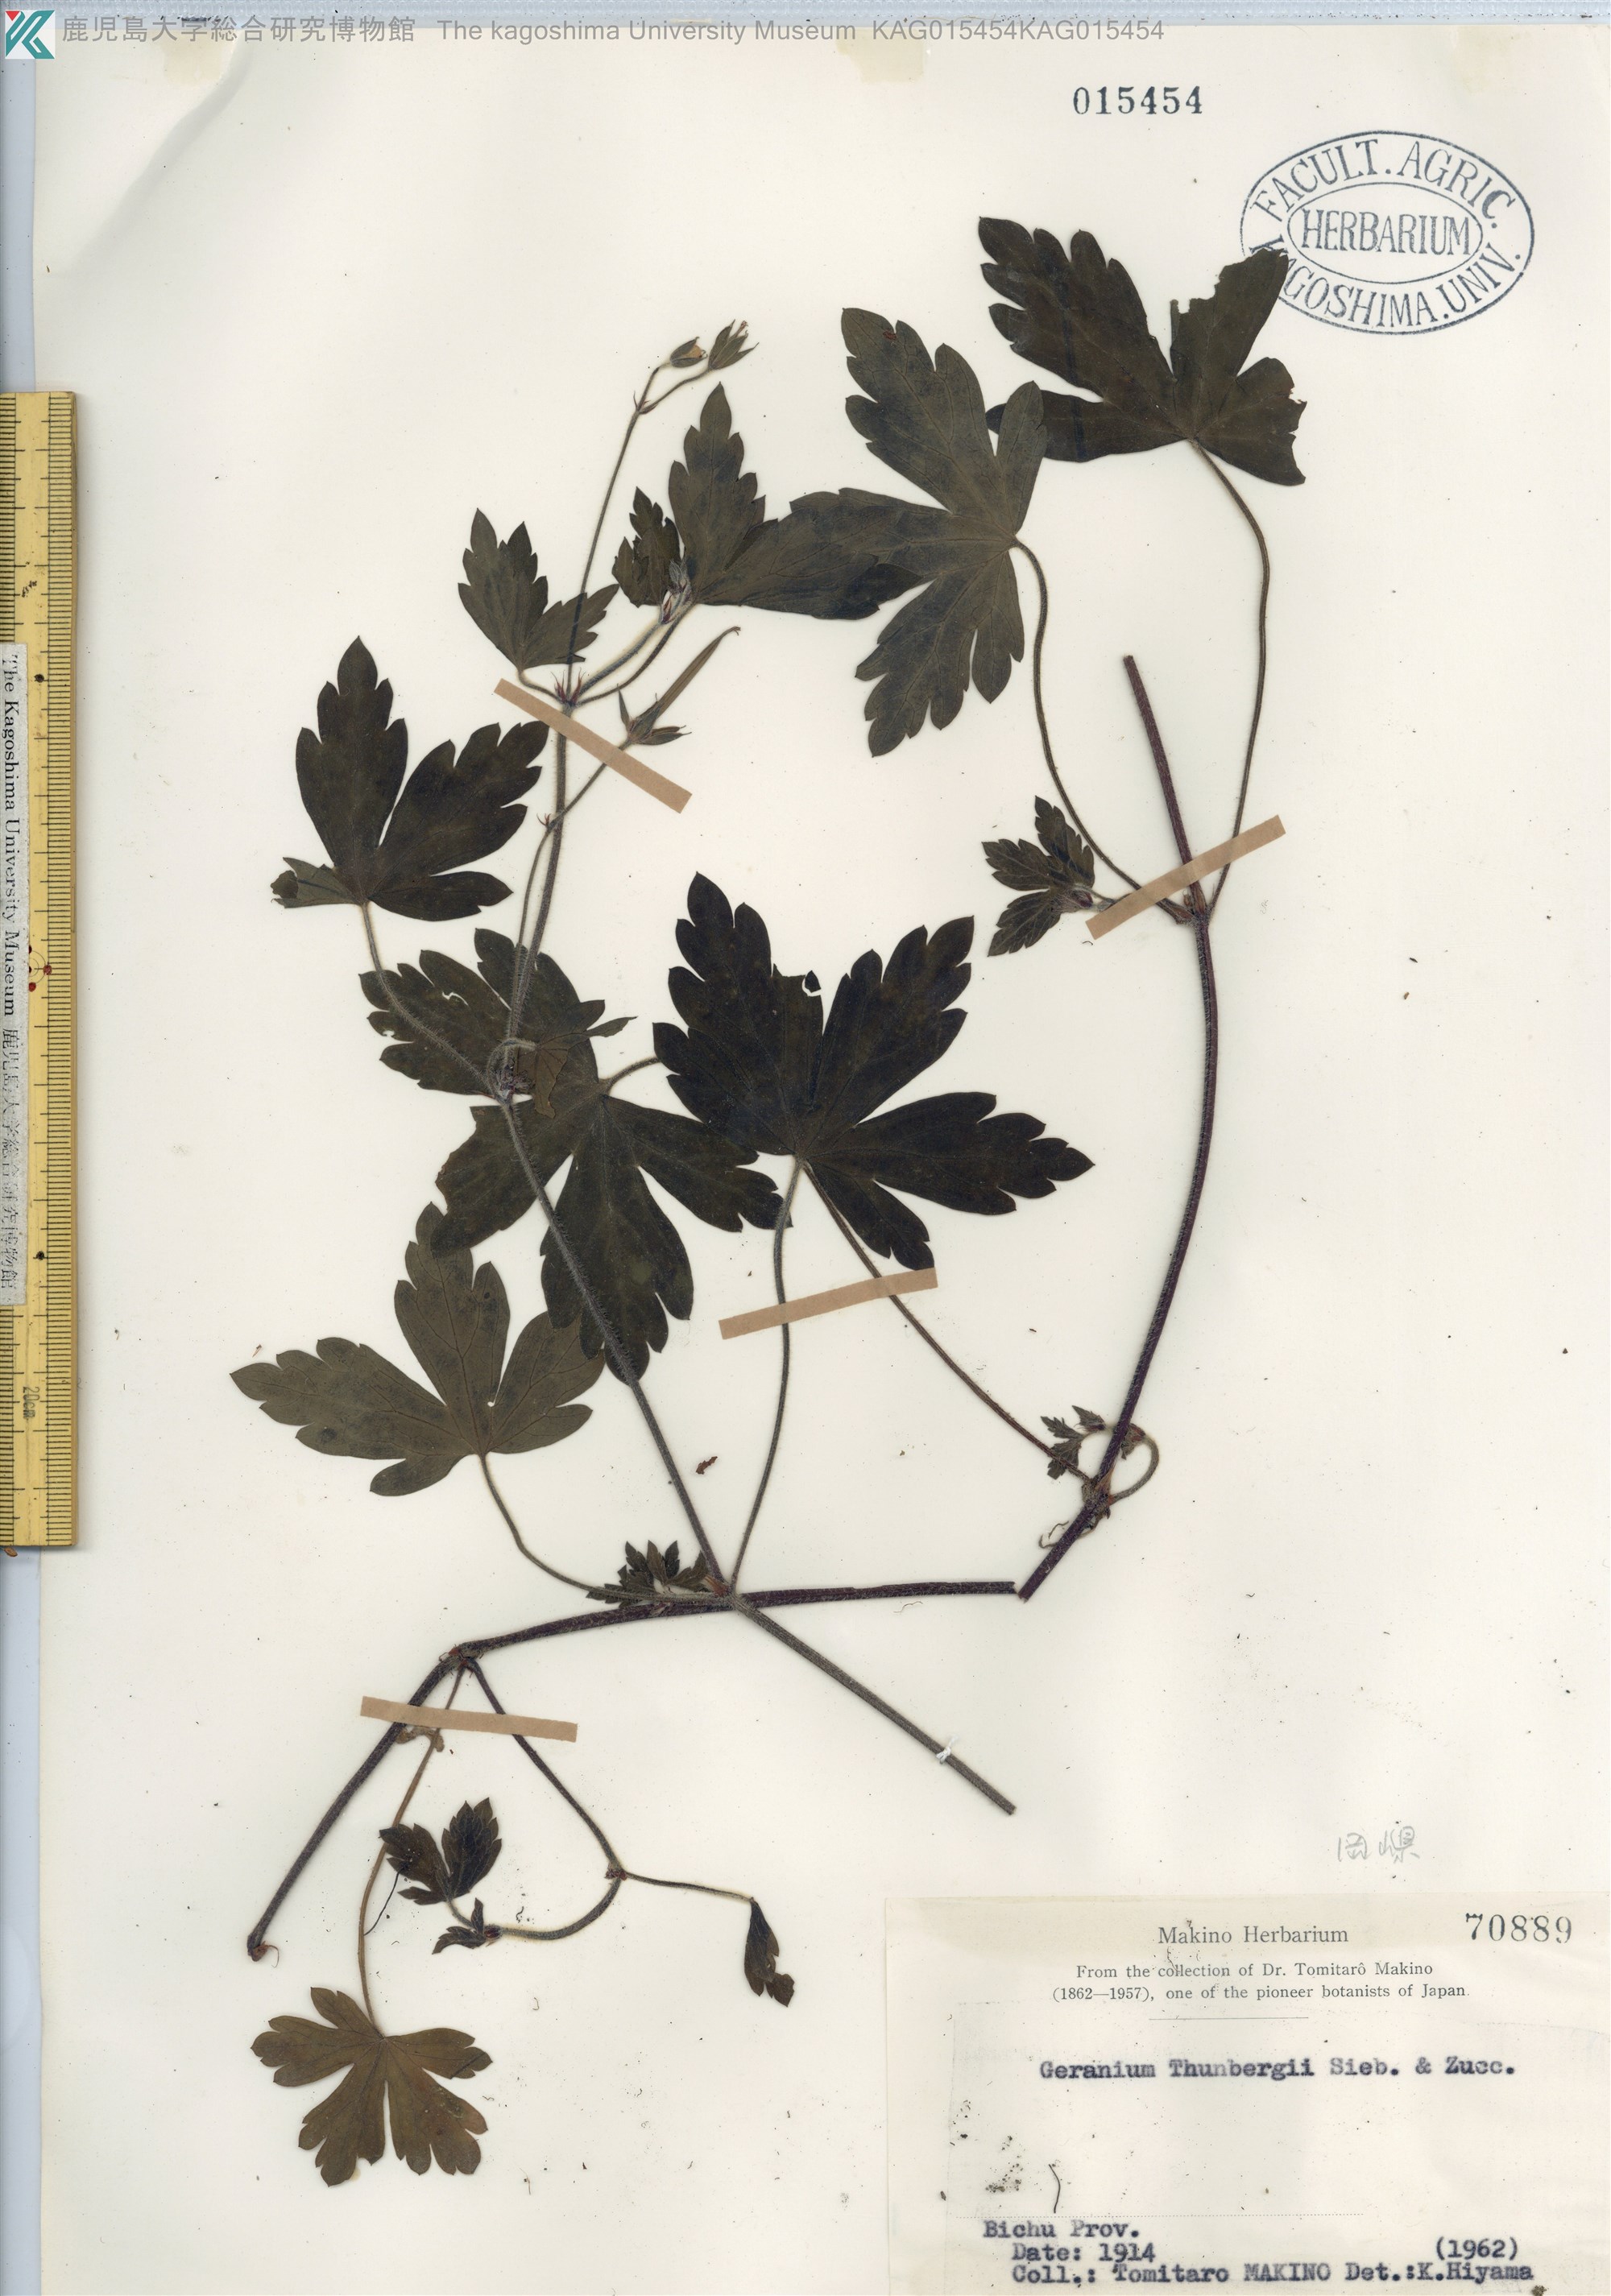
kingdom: Plantae
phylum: Tracheophyta
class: Magnoliopsida
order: Geraniales
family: Geraniaceae
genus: Geranium
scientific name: Geranium thunbergii
